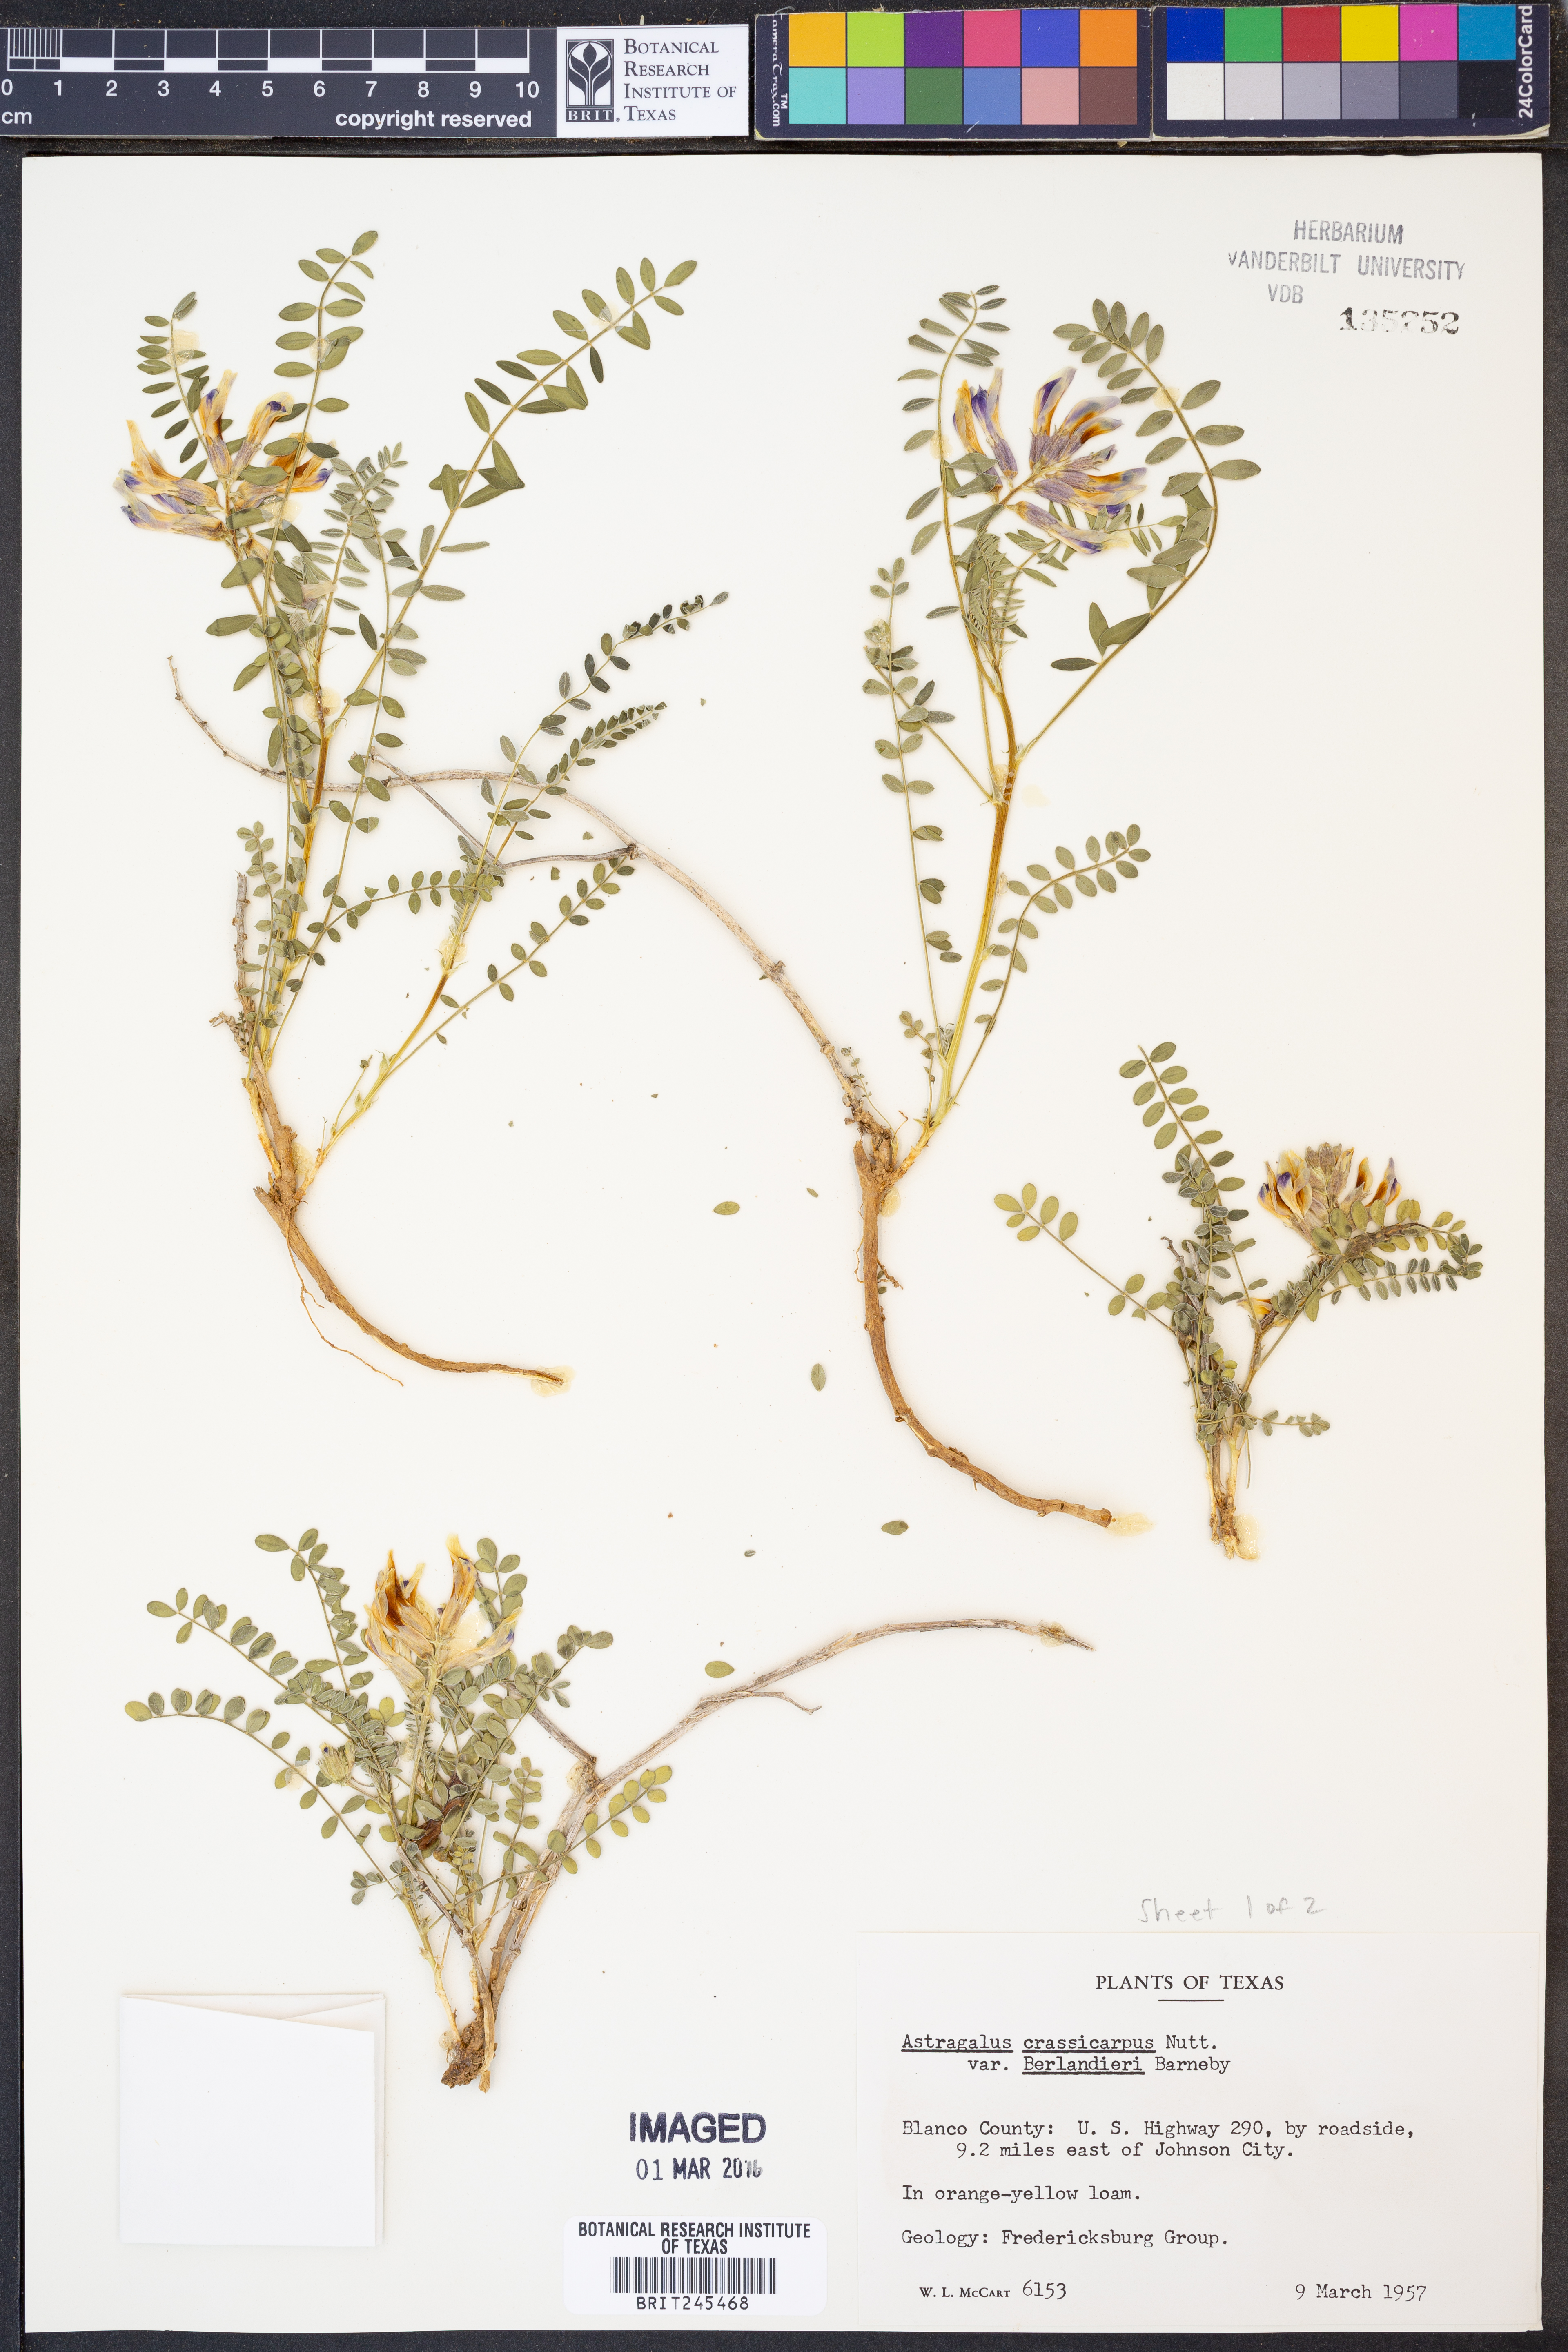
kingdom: Plantae
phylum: Tracheophyta
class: Magnoliopsida
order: Fabales
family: Fabaceae
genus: Astragalus
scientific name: Astragalus crassicarpus
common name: Ground-plum milk-vetch
